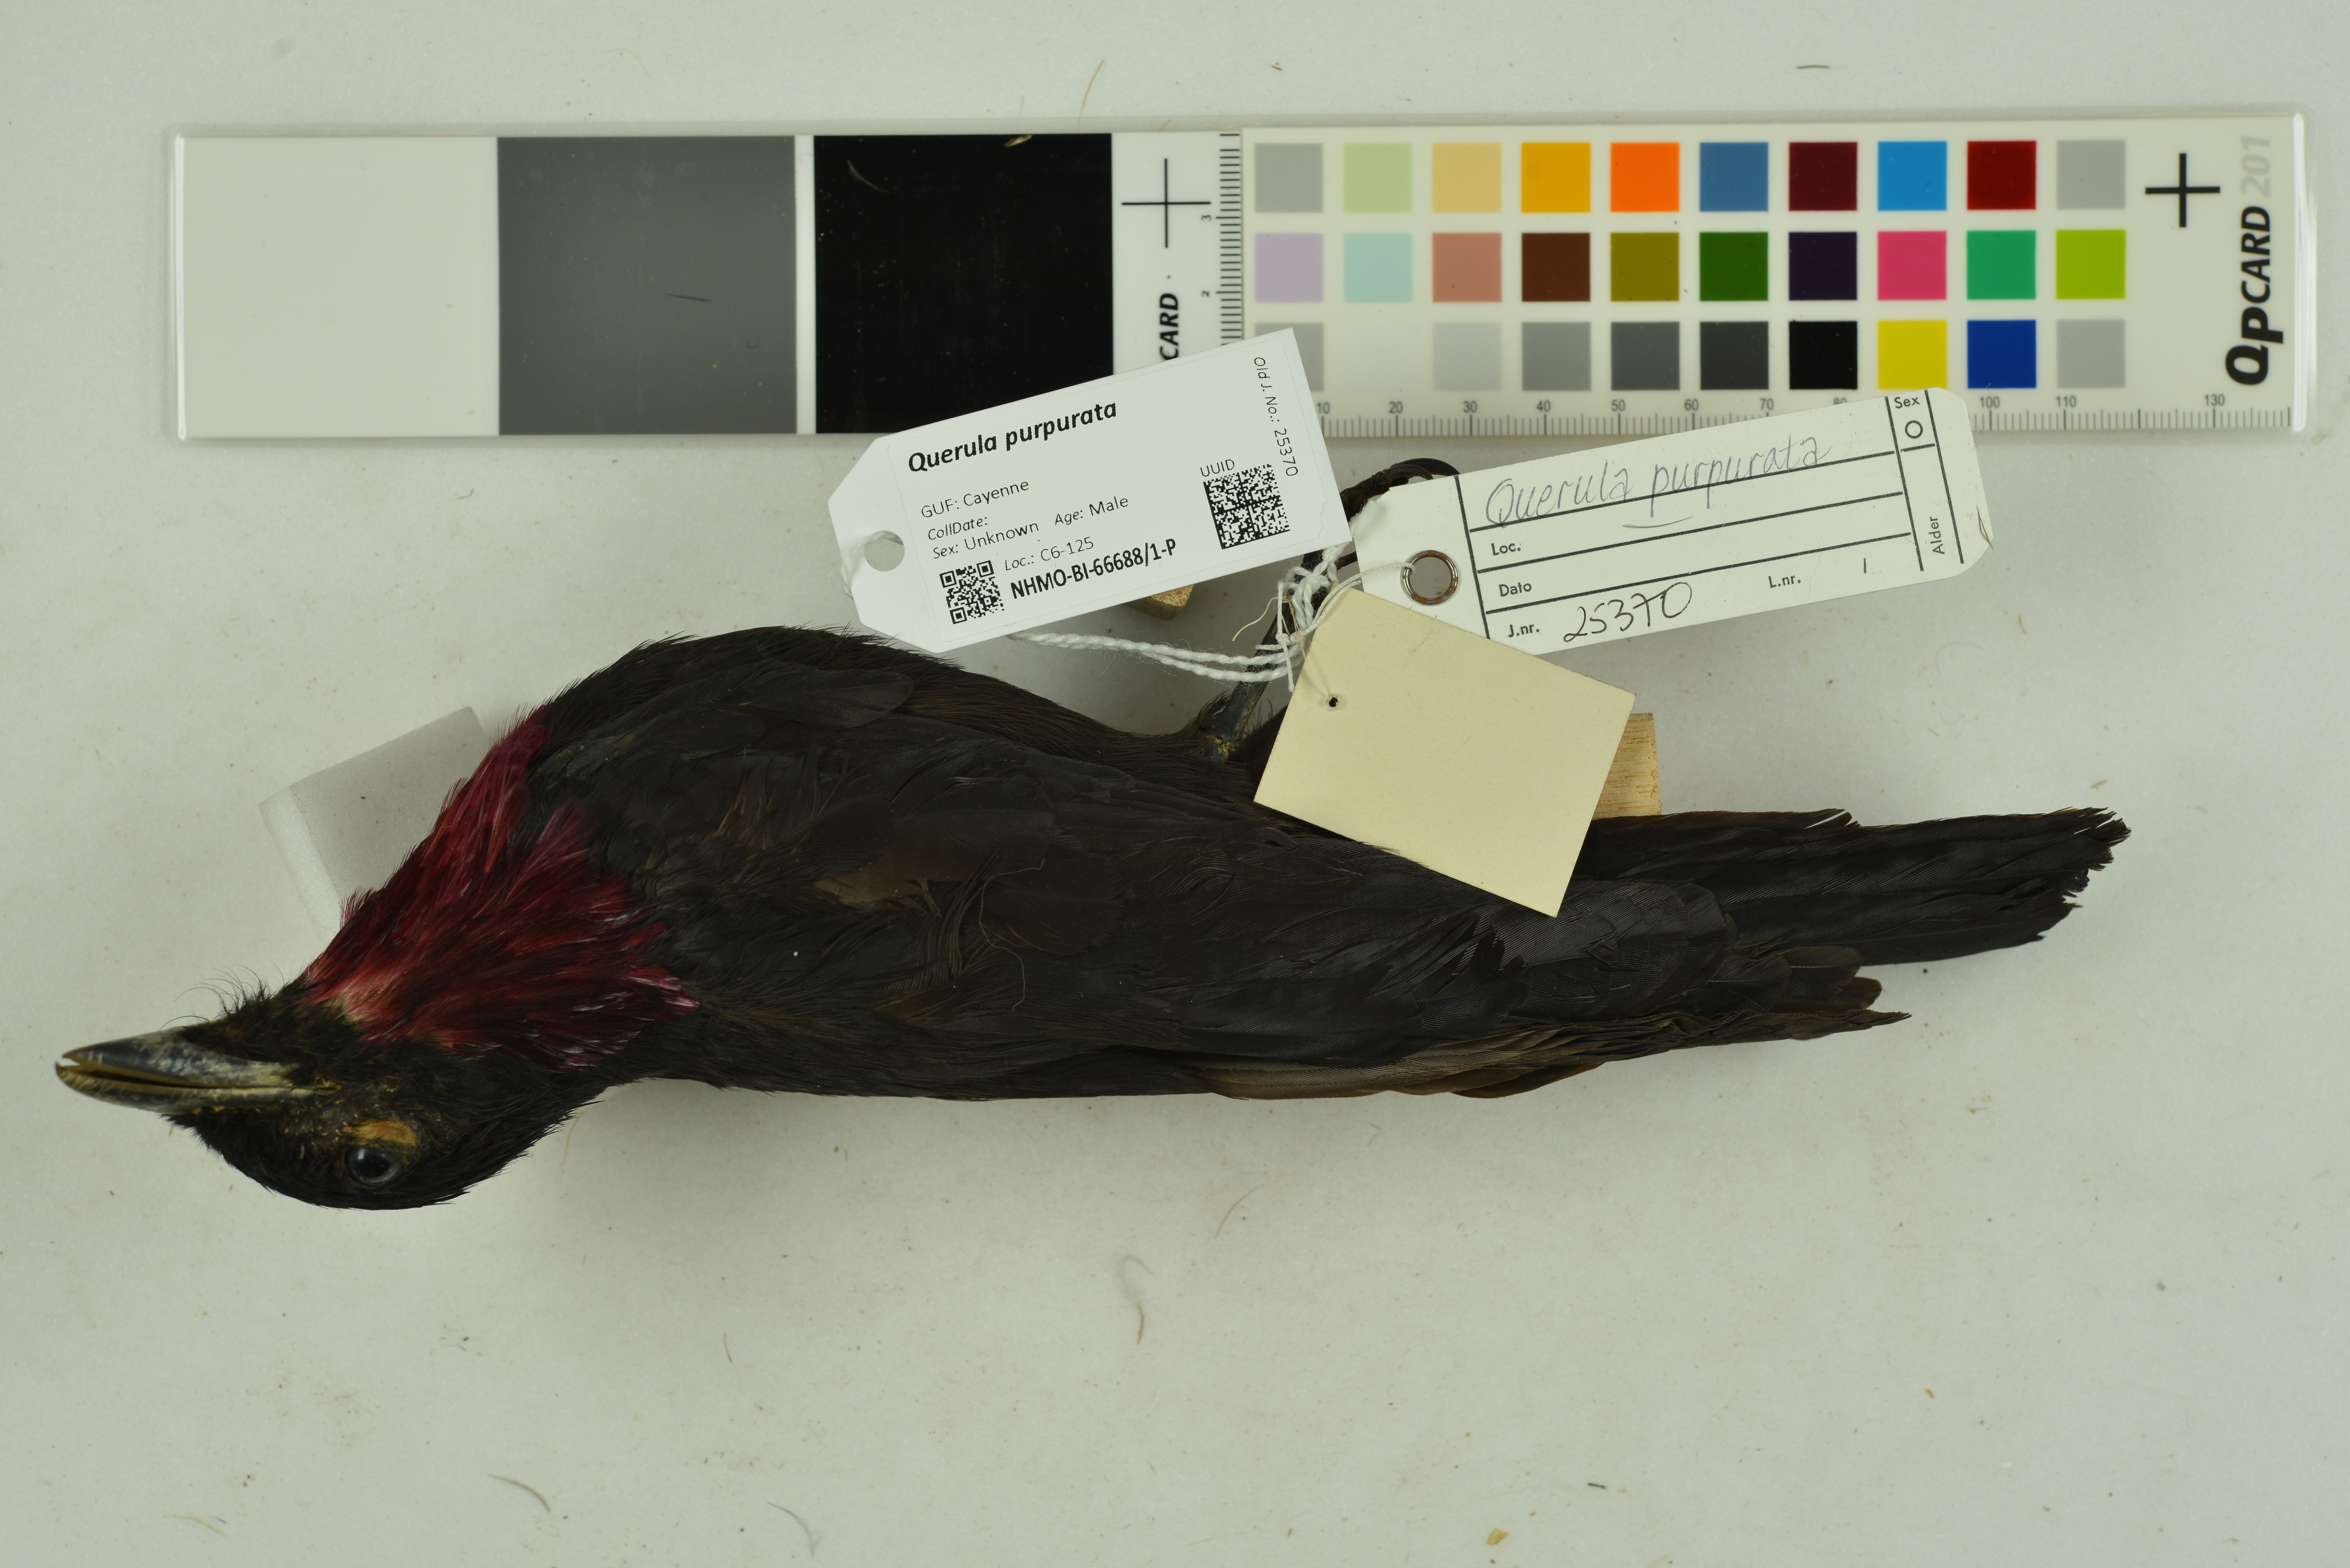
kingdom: Animalia
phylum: Chordata
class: Aves
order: Passeriformes
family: Cotingidae
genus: Querula
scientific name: Querula purpurata
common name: Purple-throated fruitcrow
